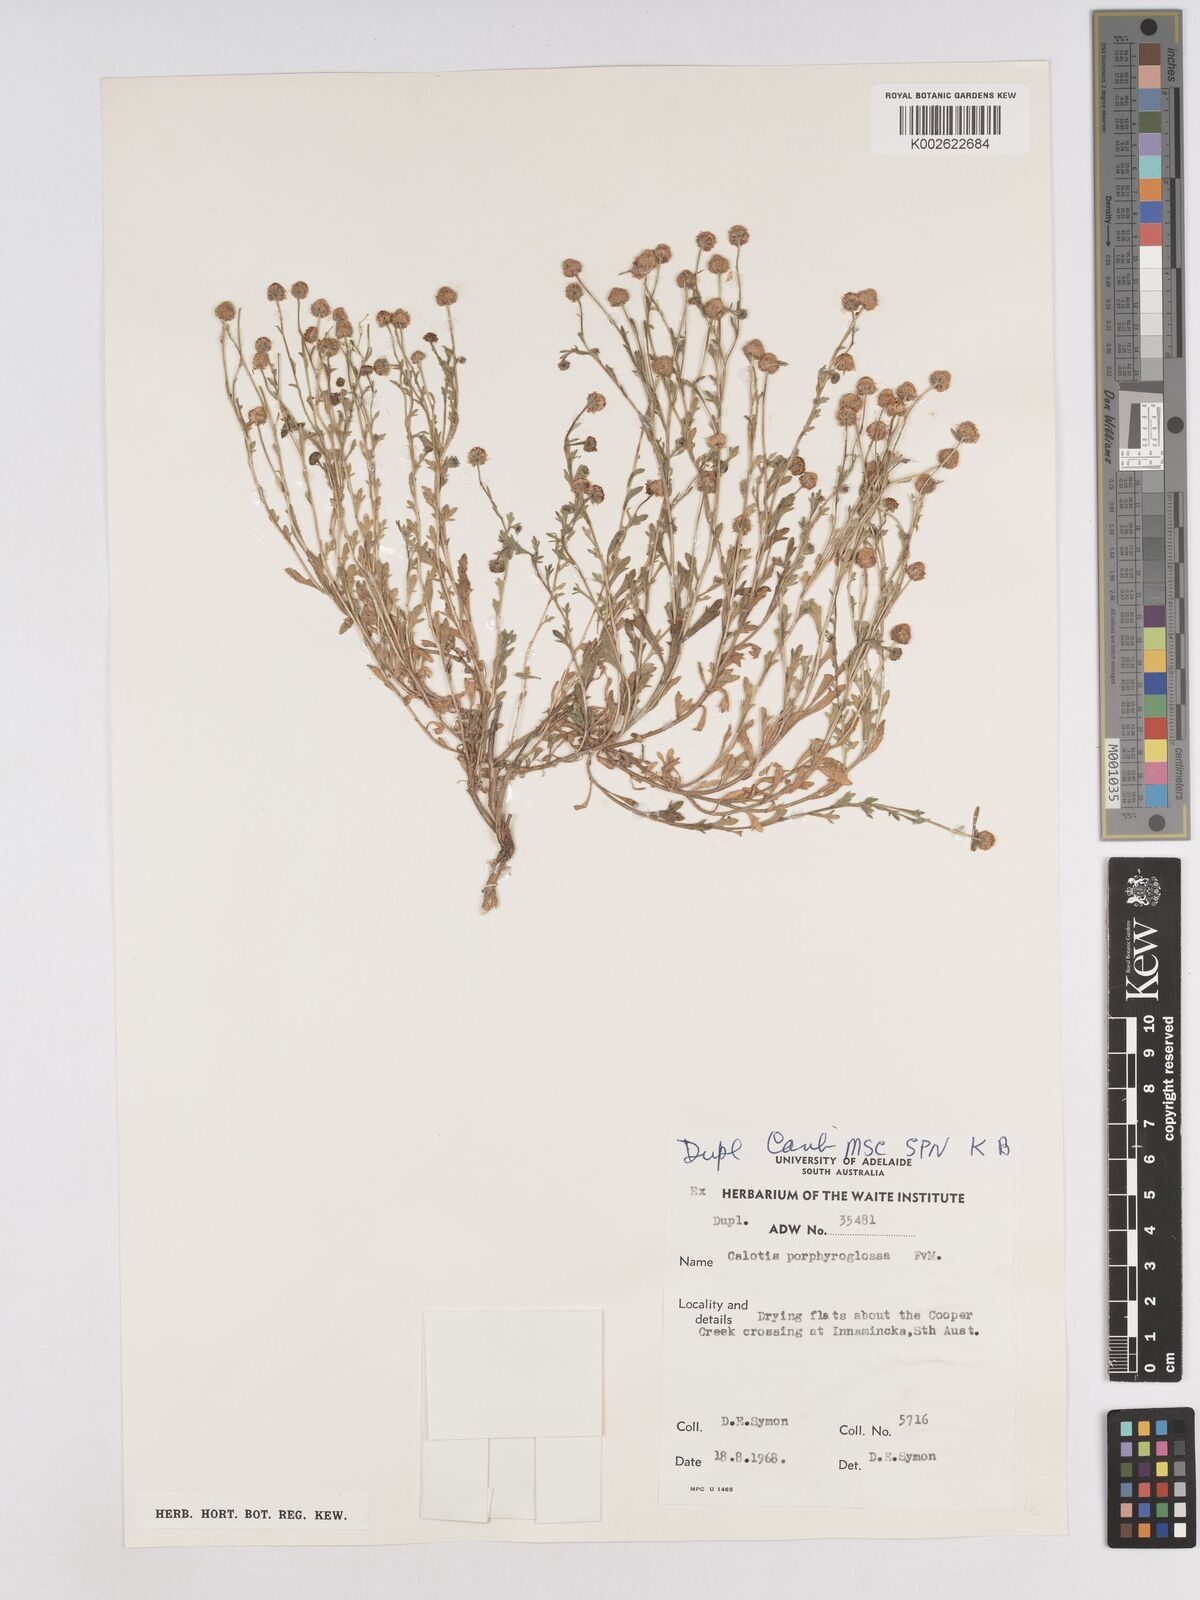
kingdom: Plantae
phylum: Tracheophyta
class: Magnoliopsida
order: Asterales
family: Asteraceae
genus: Calotis
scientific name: Calotis porphyroglossa
